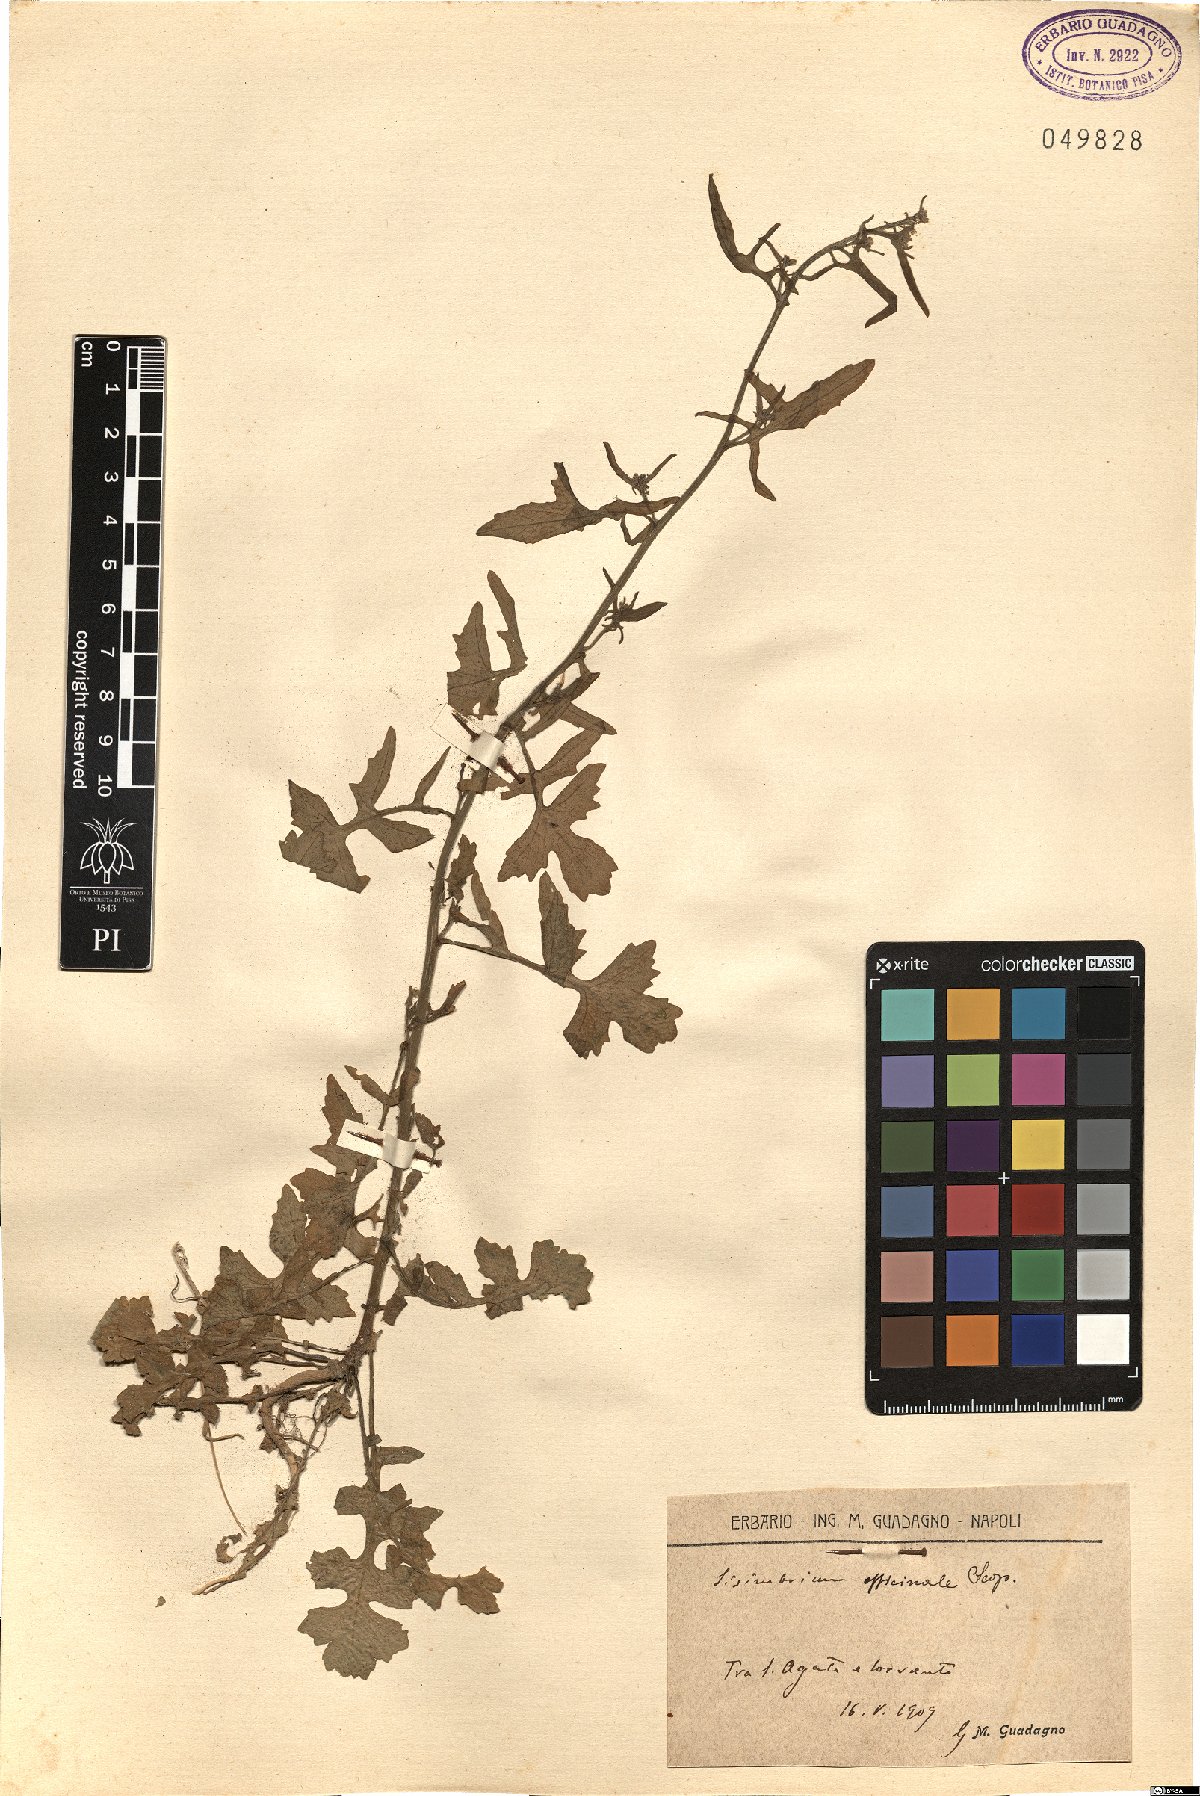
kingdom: Plantae
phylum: Tracheophyta
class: Magnoliopsida
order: Brassicales
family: Brassicaceae
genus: Sisymbrium
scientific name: Sisymbrium officinale
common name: Hedge mustard
